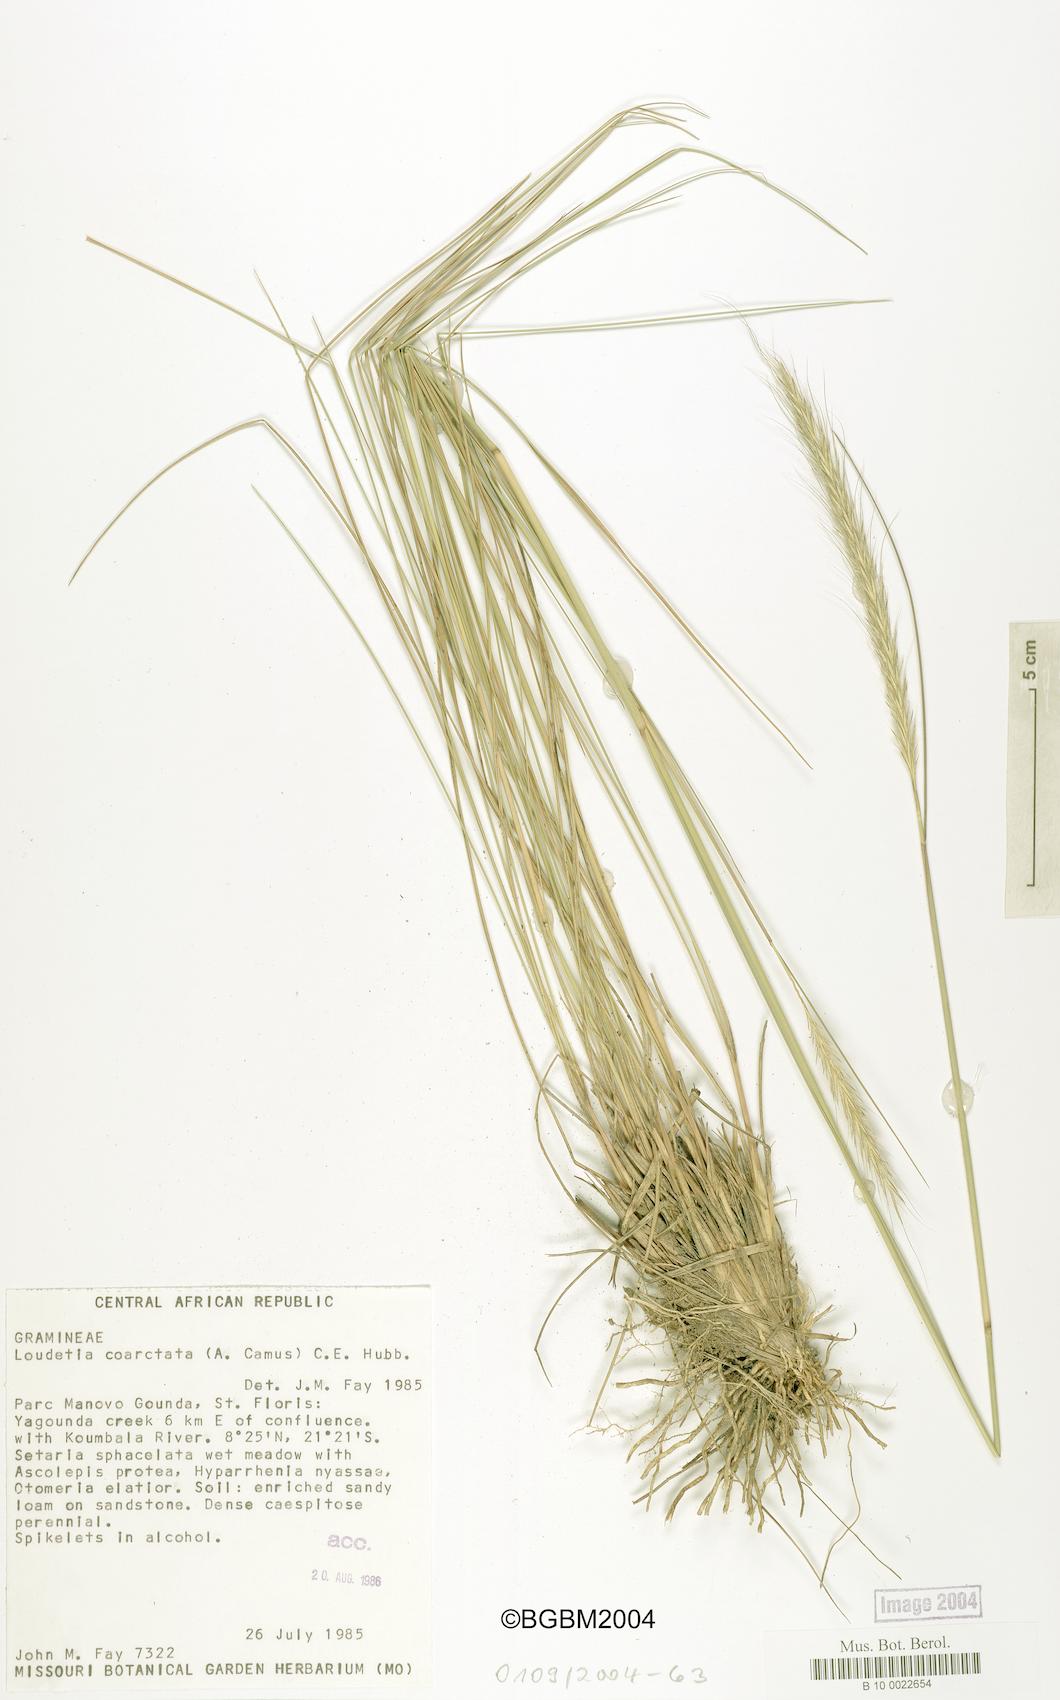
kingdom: Plantae
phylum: Tracheophyta
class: Liliopsida
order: Poales
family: Poaceae
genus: Loudetia
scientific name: Loudetia coarctata
